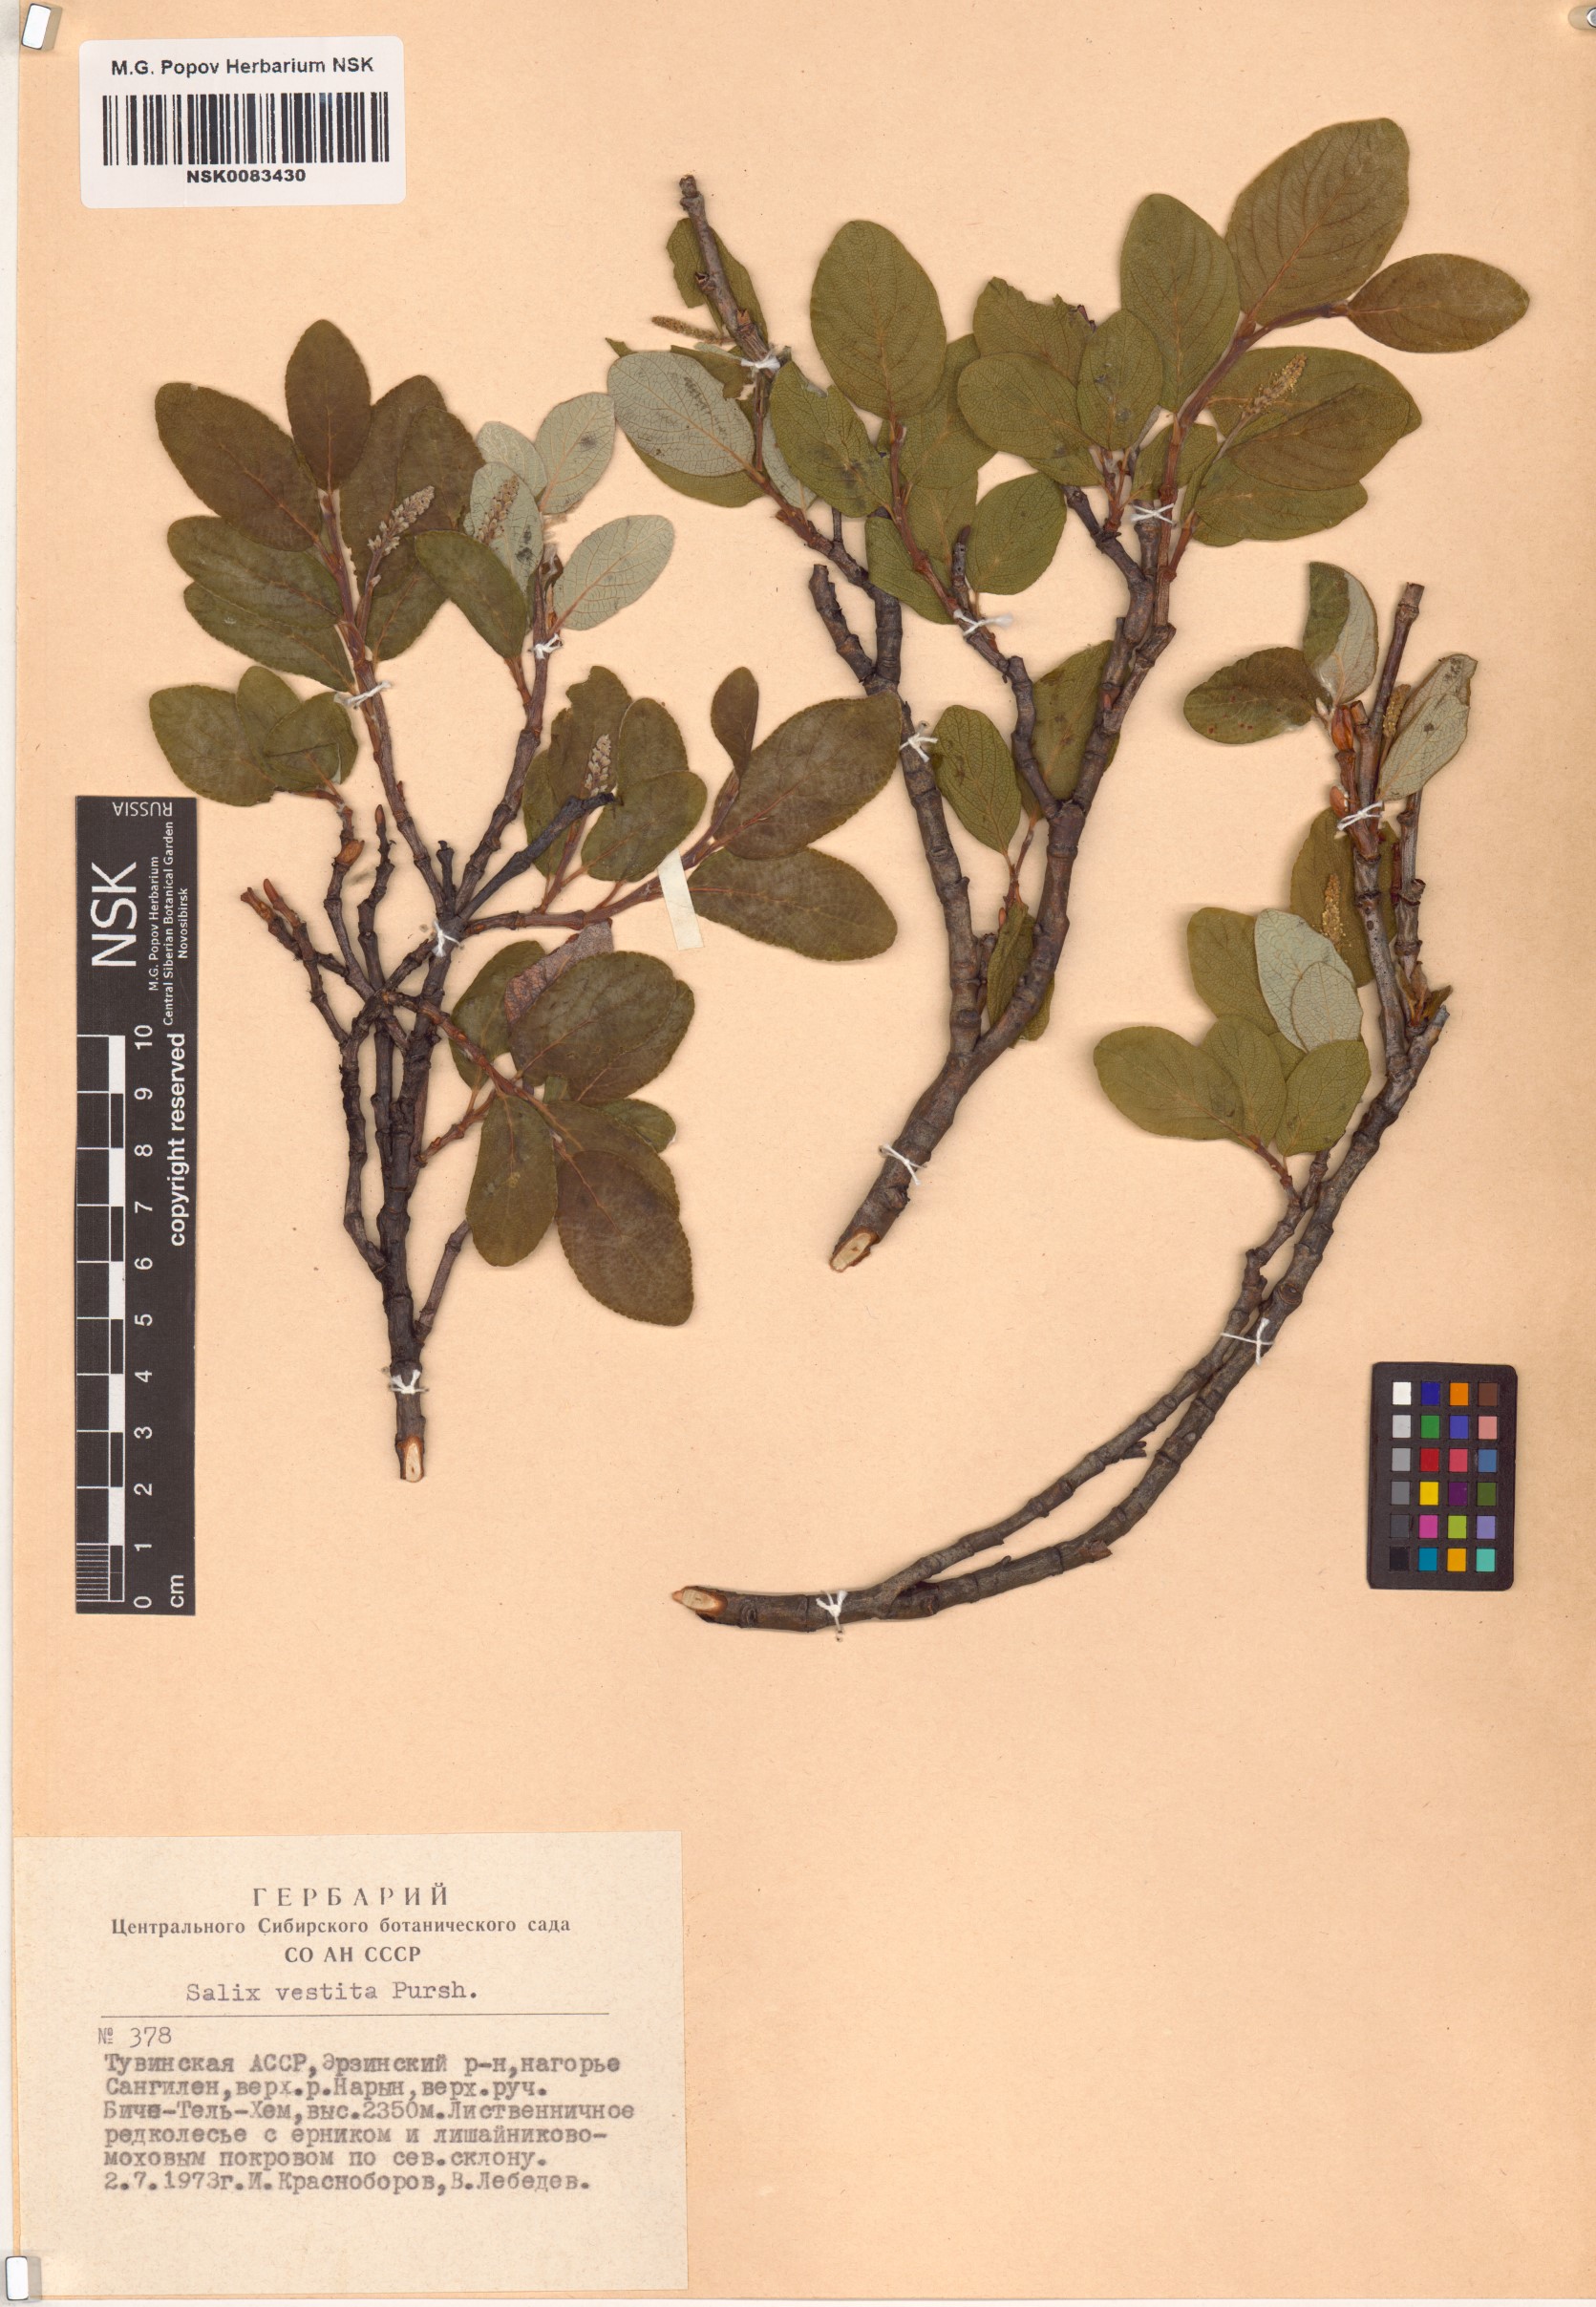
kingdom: Plantae
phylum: Tracheophyta
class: Magnoliopsida
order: Malpighiales
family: Salicaceae
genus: Salix
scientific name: Salix vestita
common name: Hairy willow
